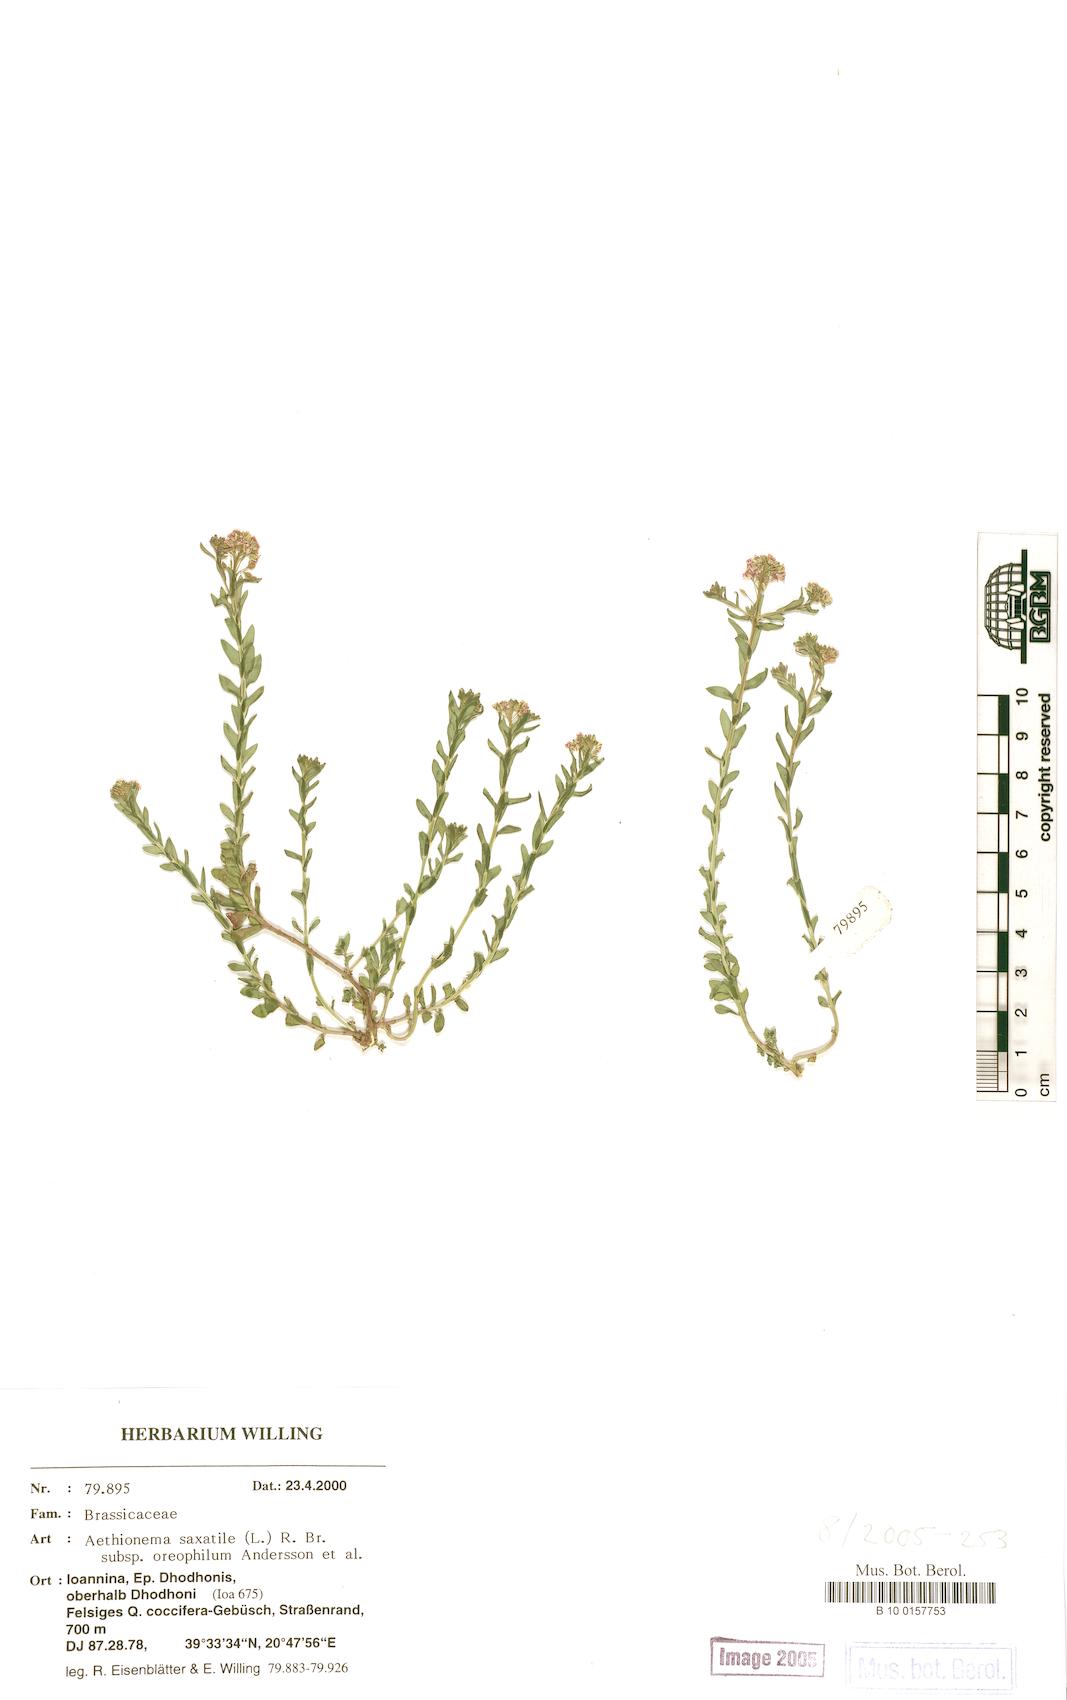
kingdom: Plantae
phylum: Tracheophyta
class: Magnoliopsida
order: Brassicales
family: Brassicaceae
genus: Aethionema
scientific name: Aethionema saxatile
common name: Burnt candytuft
